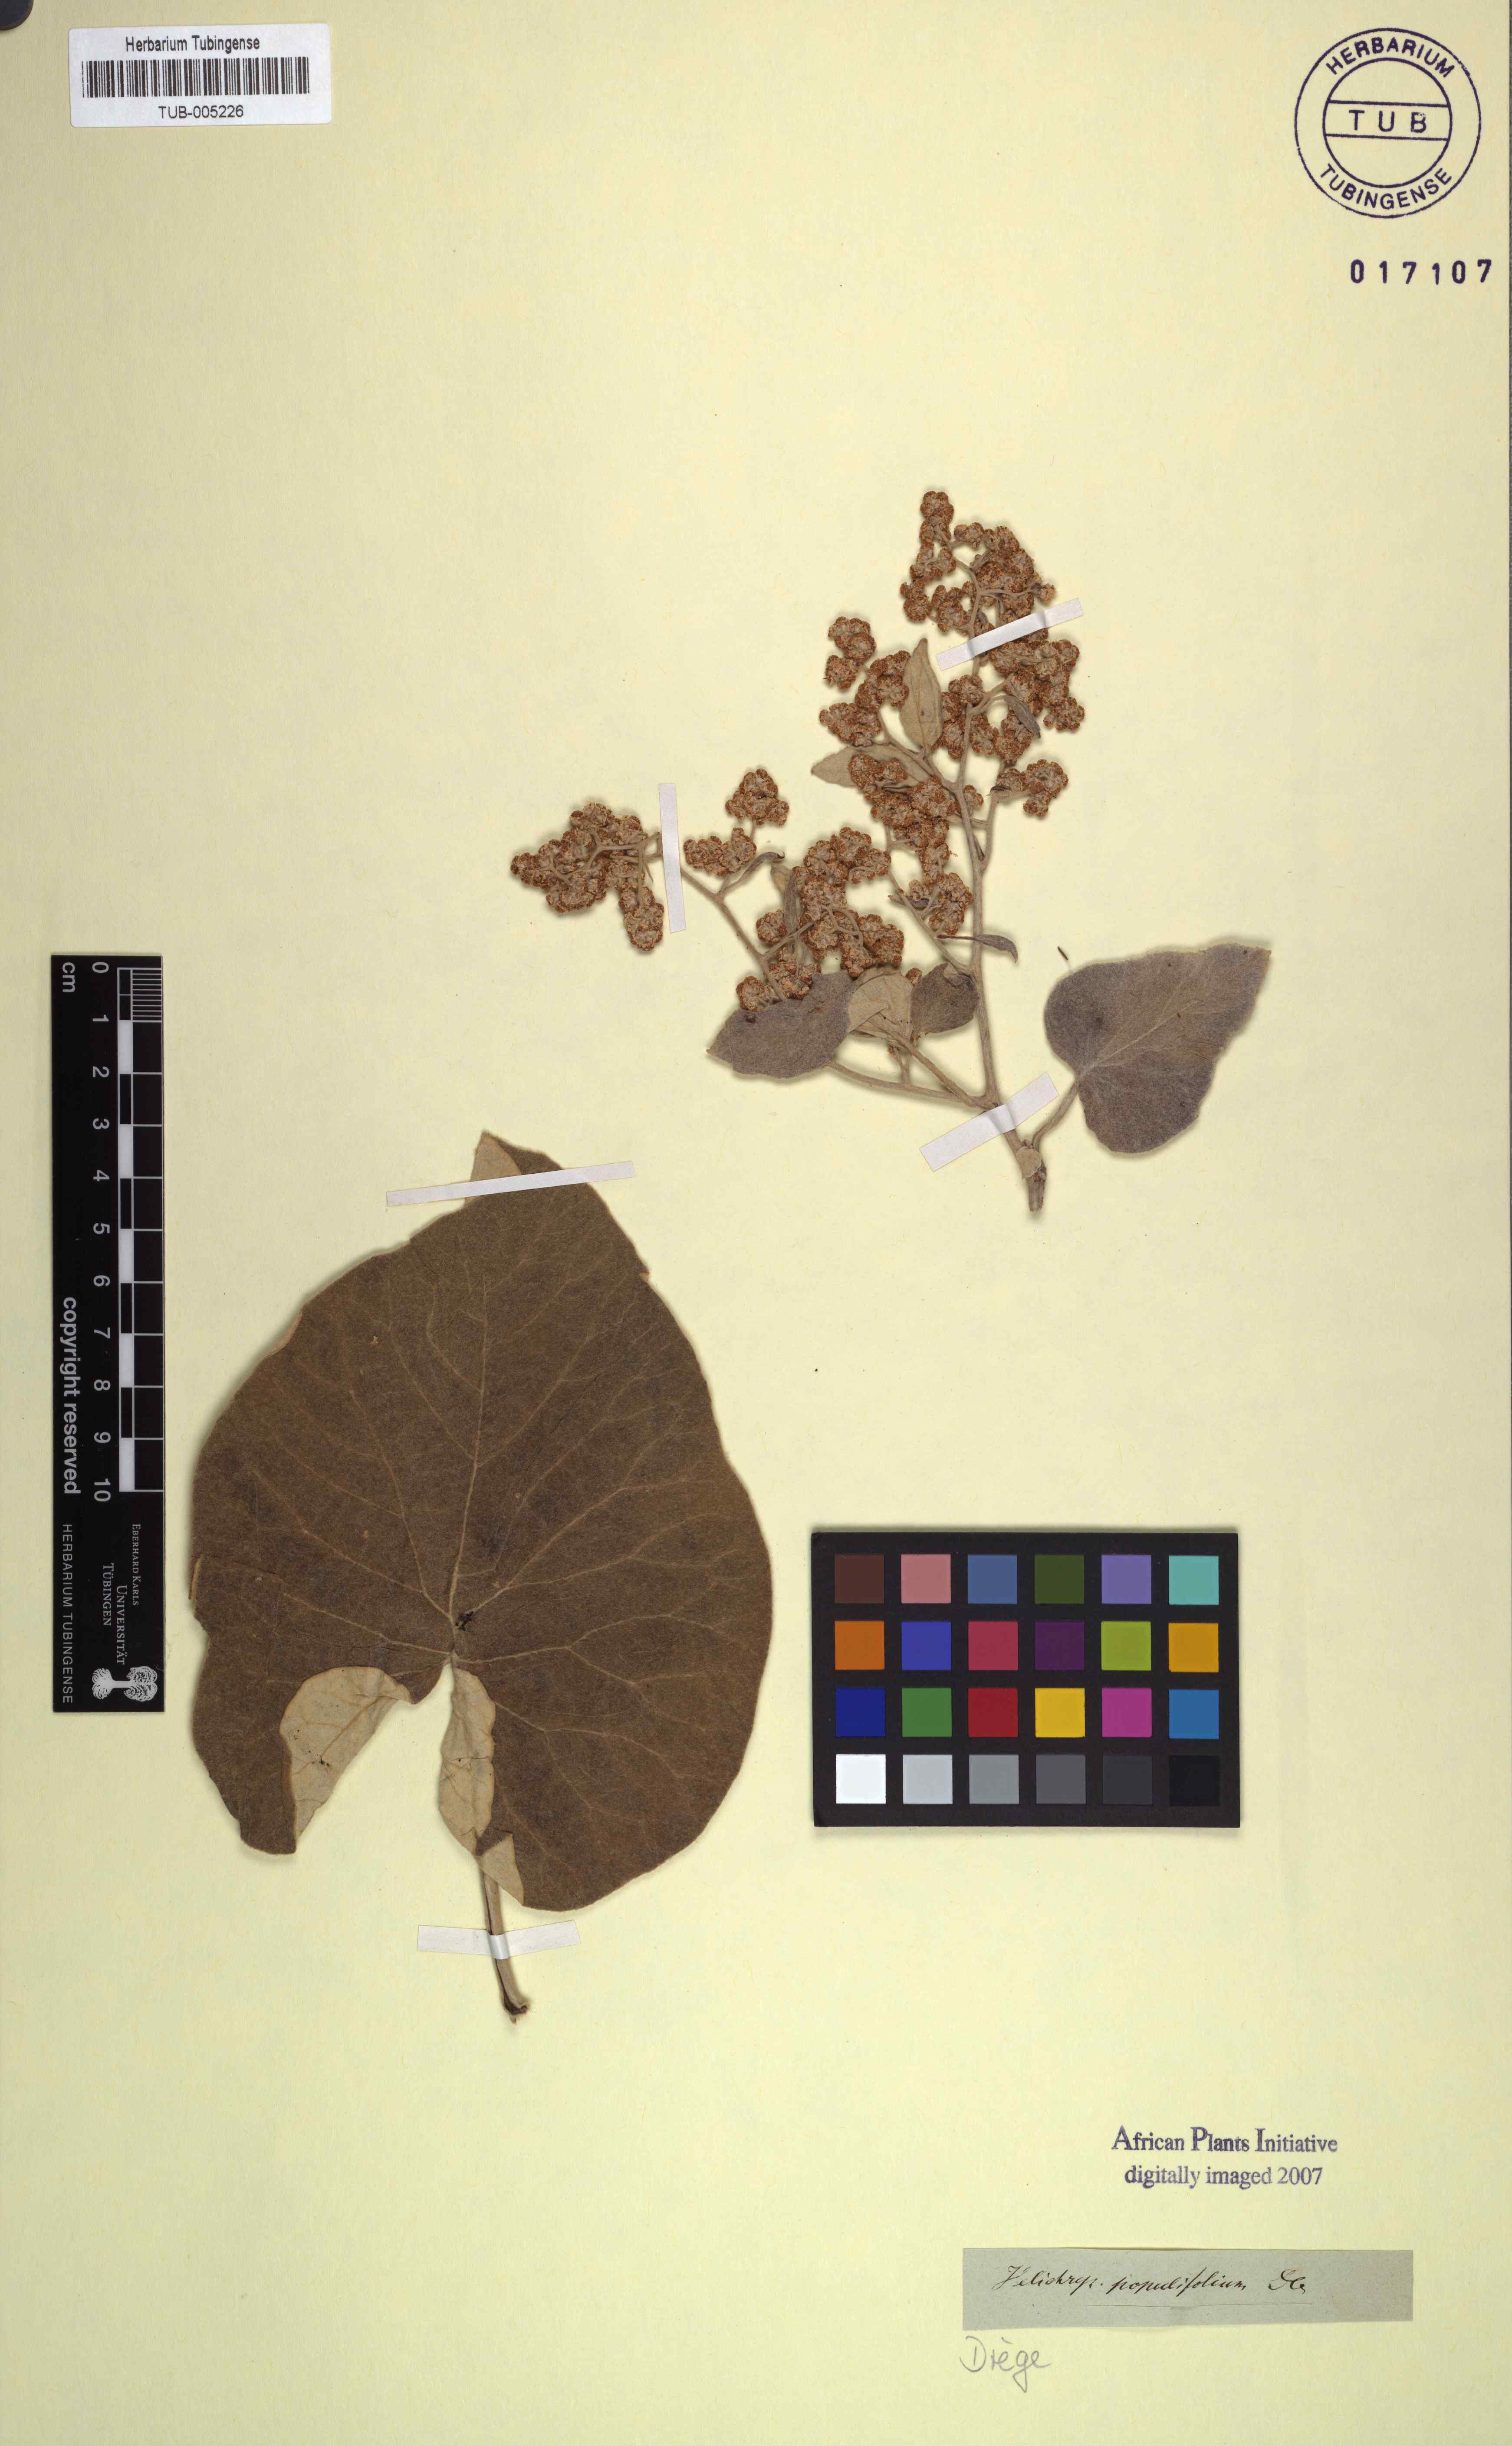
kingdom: Plantae
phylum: Tracheophyta
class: Magnoliopsida
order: Asterales
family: Asteraceae
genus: Helichrysum
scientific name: Helichrysum populifolium
